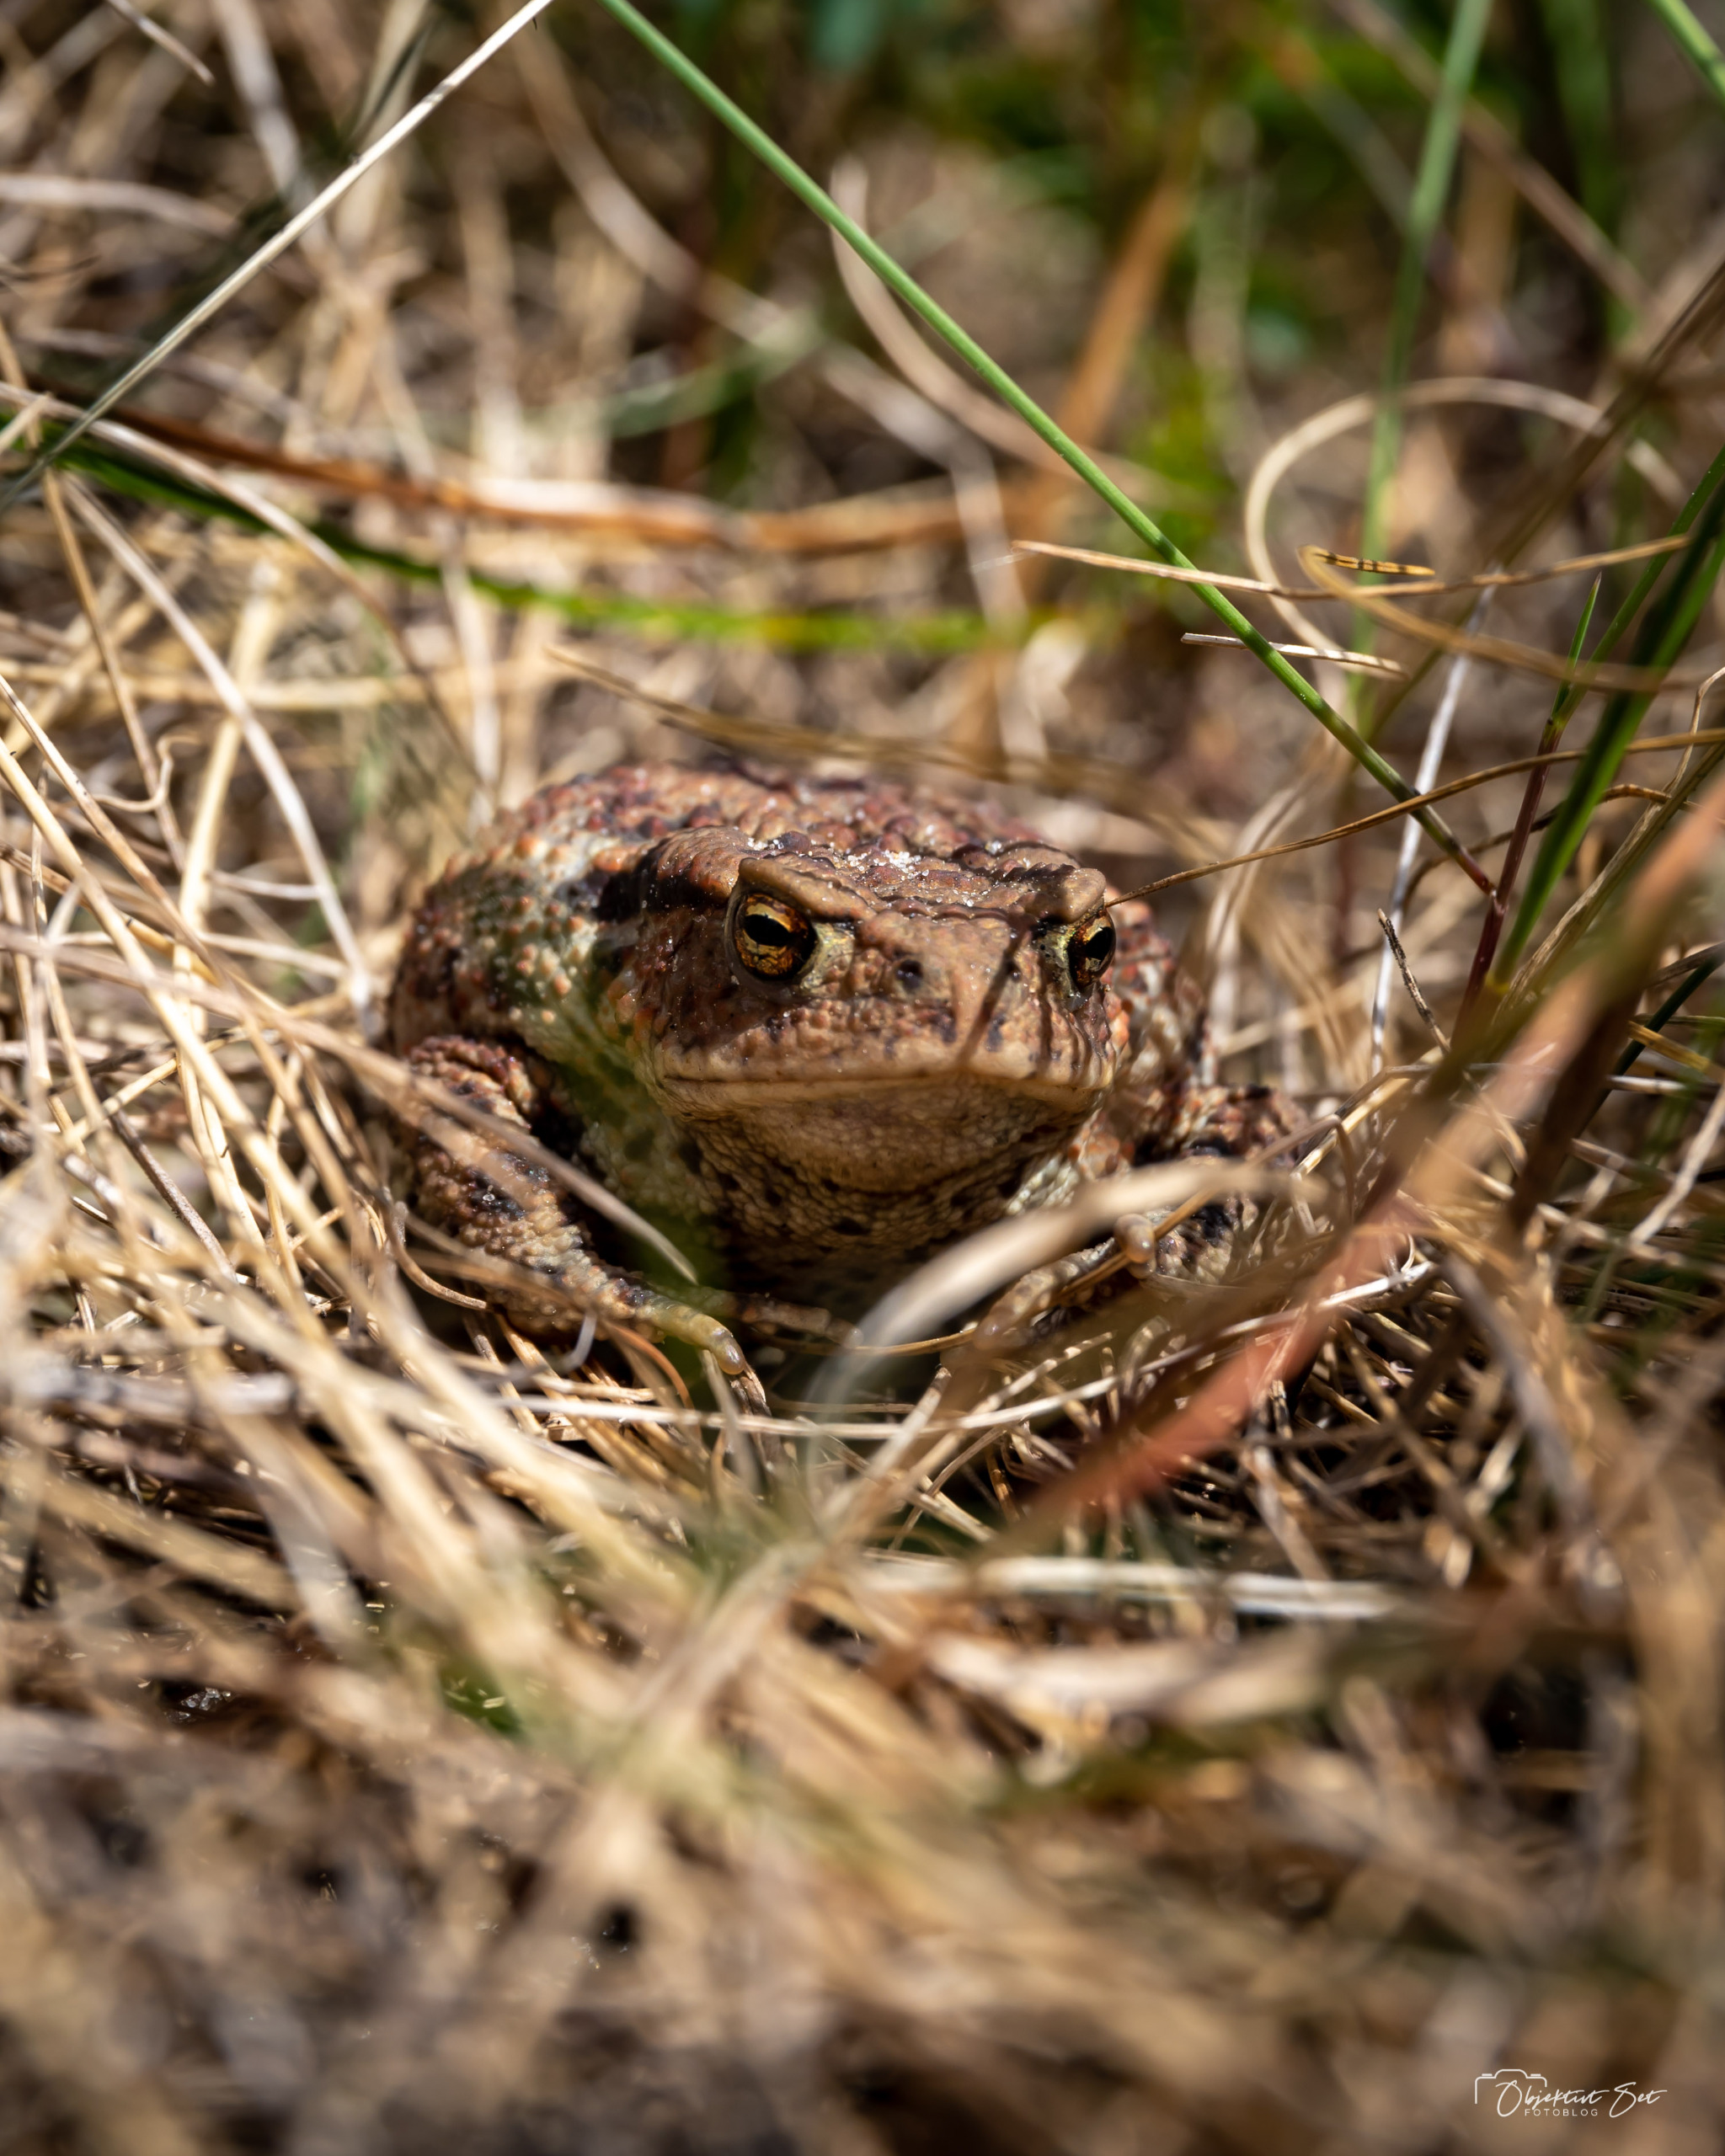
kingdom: Animalia
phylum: Chordata
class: Amphibia
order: Anura
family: Bufonidae
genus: Bufo
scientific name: Bufo bufo
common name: Skrubtudse
